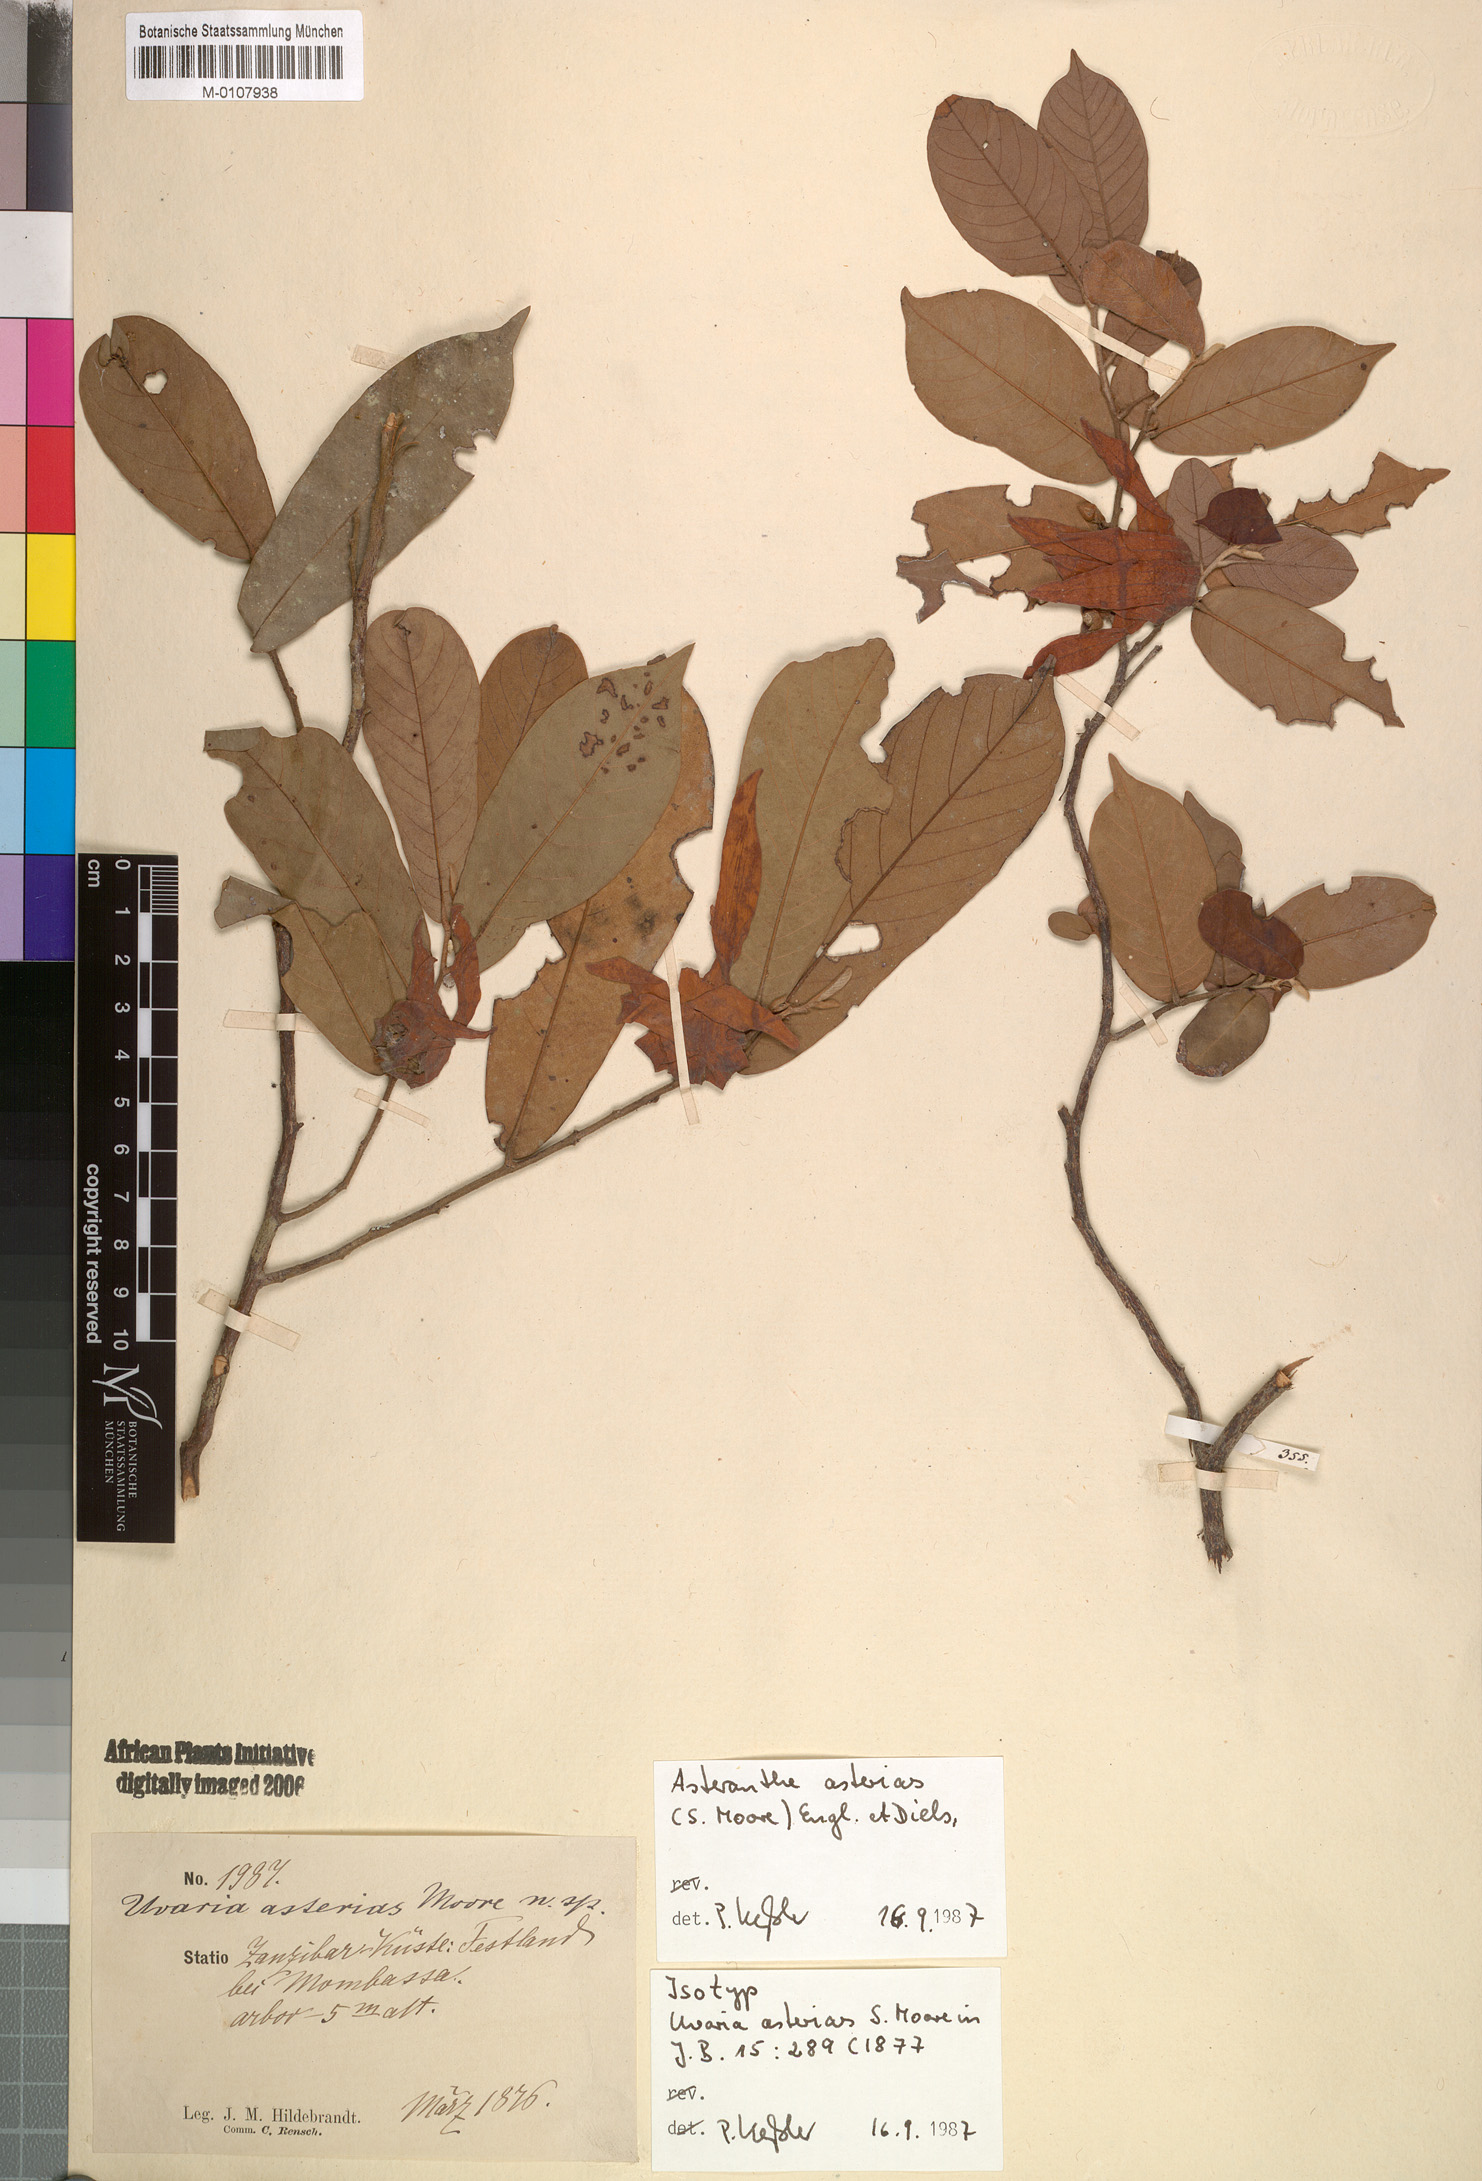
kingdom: Plantae
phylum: Tracheophyta
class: Magnoliopsida
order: Magnoliales
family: Annonaceae
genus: Asteranthe
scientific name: Asteranthe asterias
